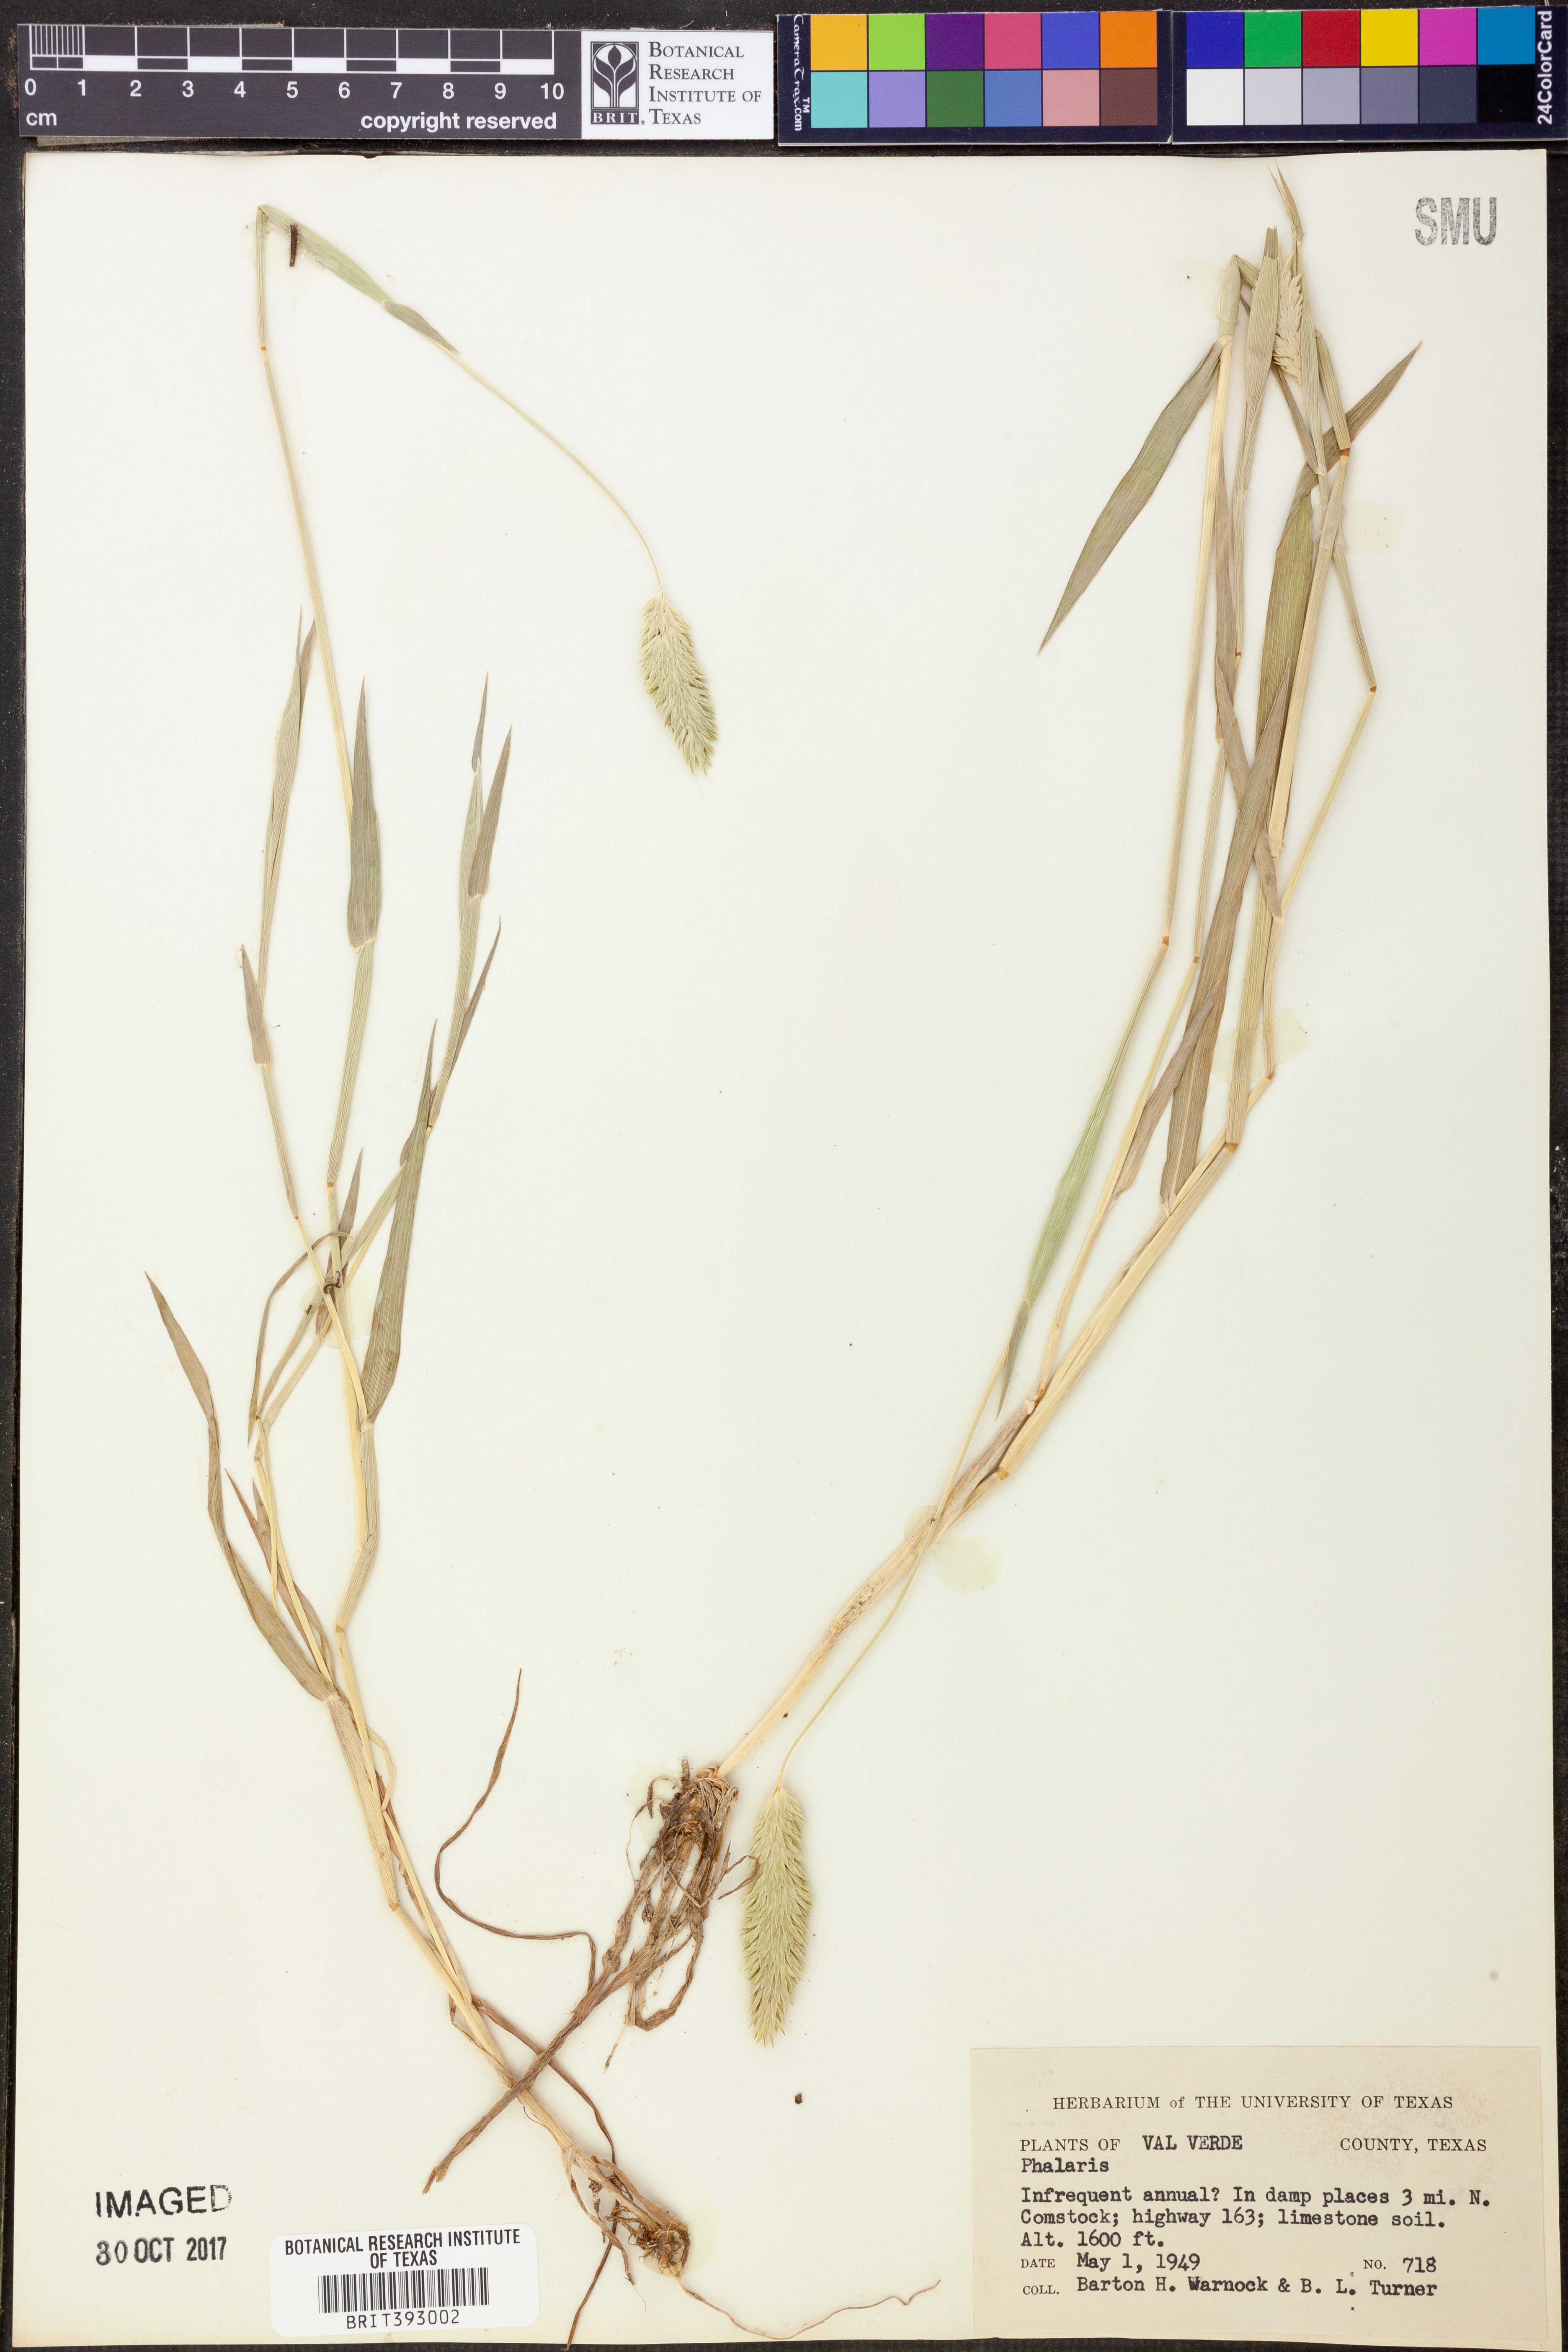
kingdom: Plantae
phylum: Tracheophyta
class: Liliopsida
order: Poales
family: Poaceae
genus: Phalaris
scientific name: Phalaris
